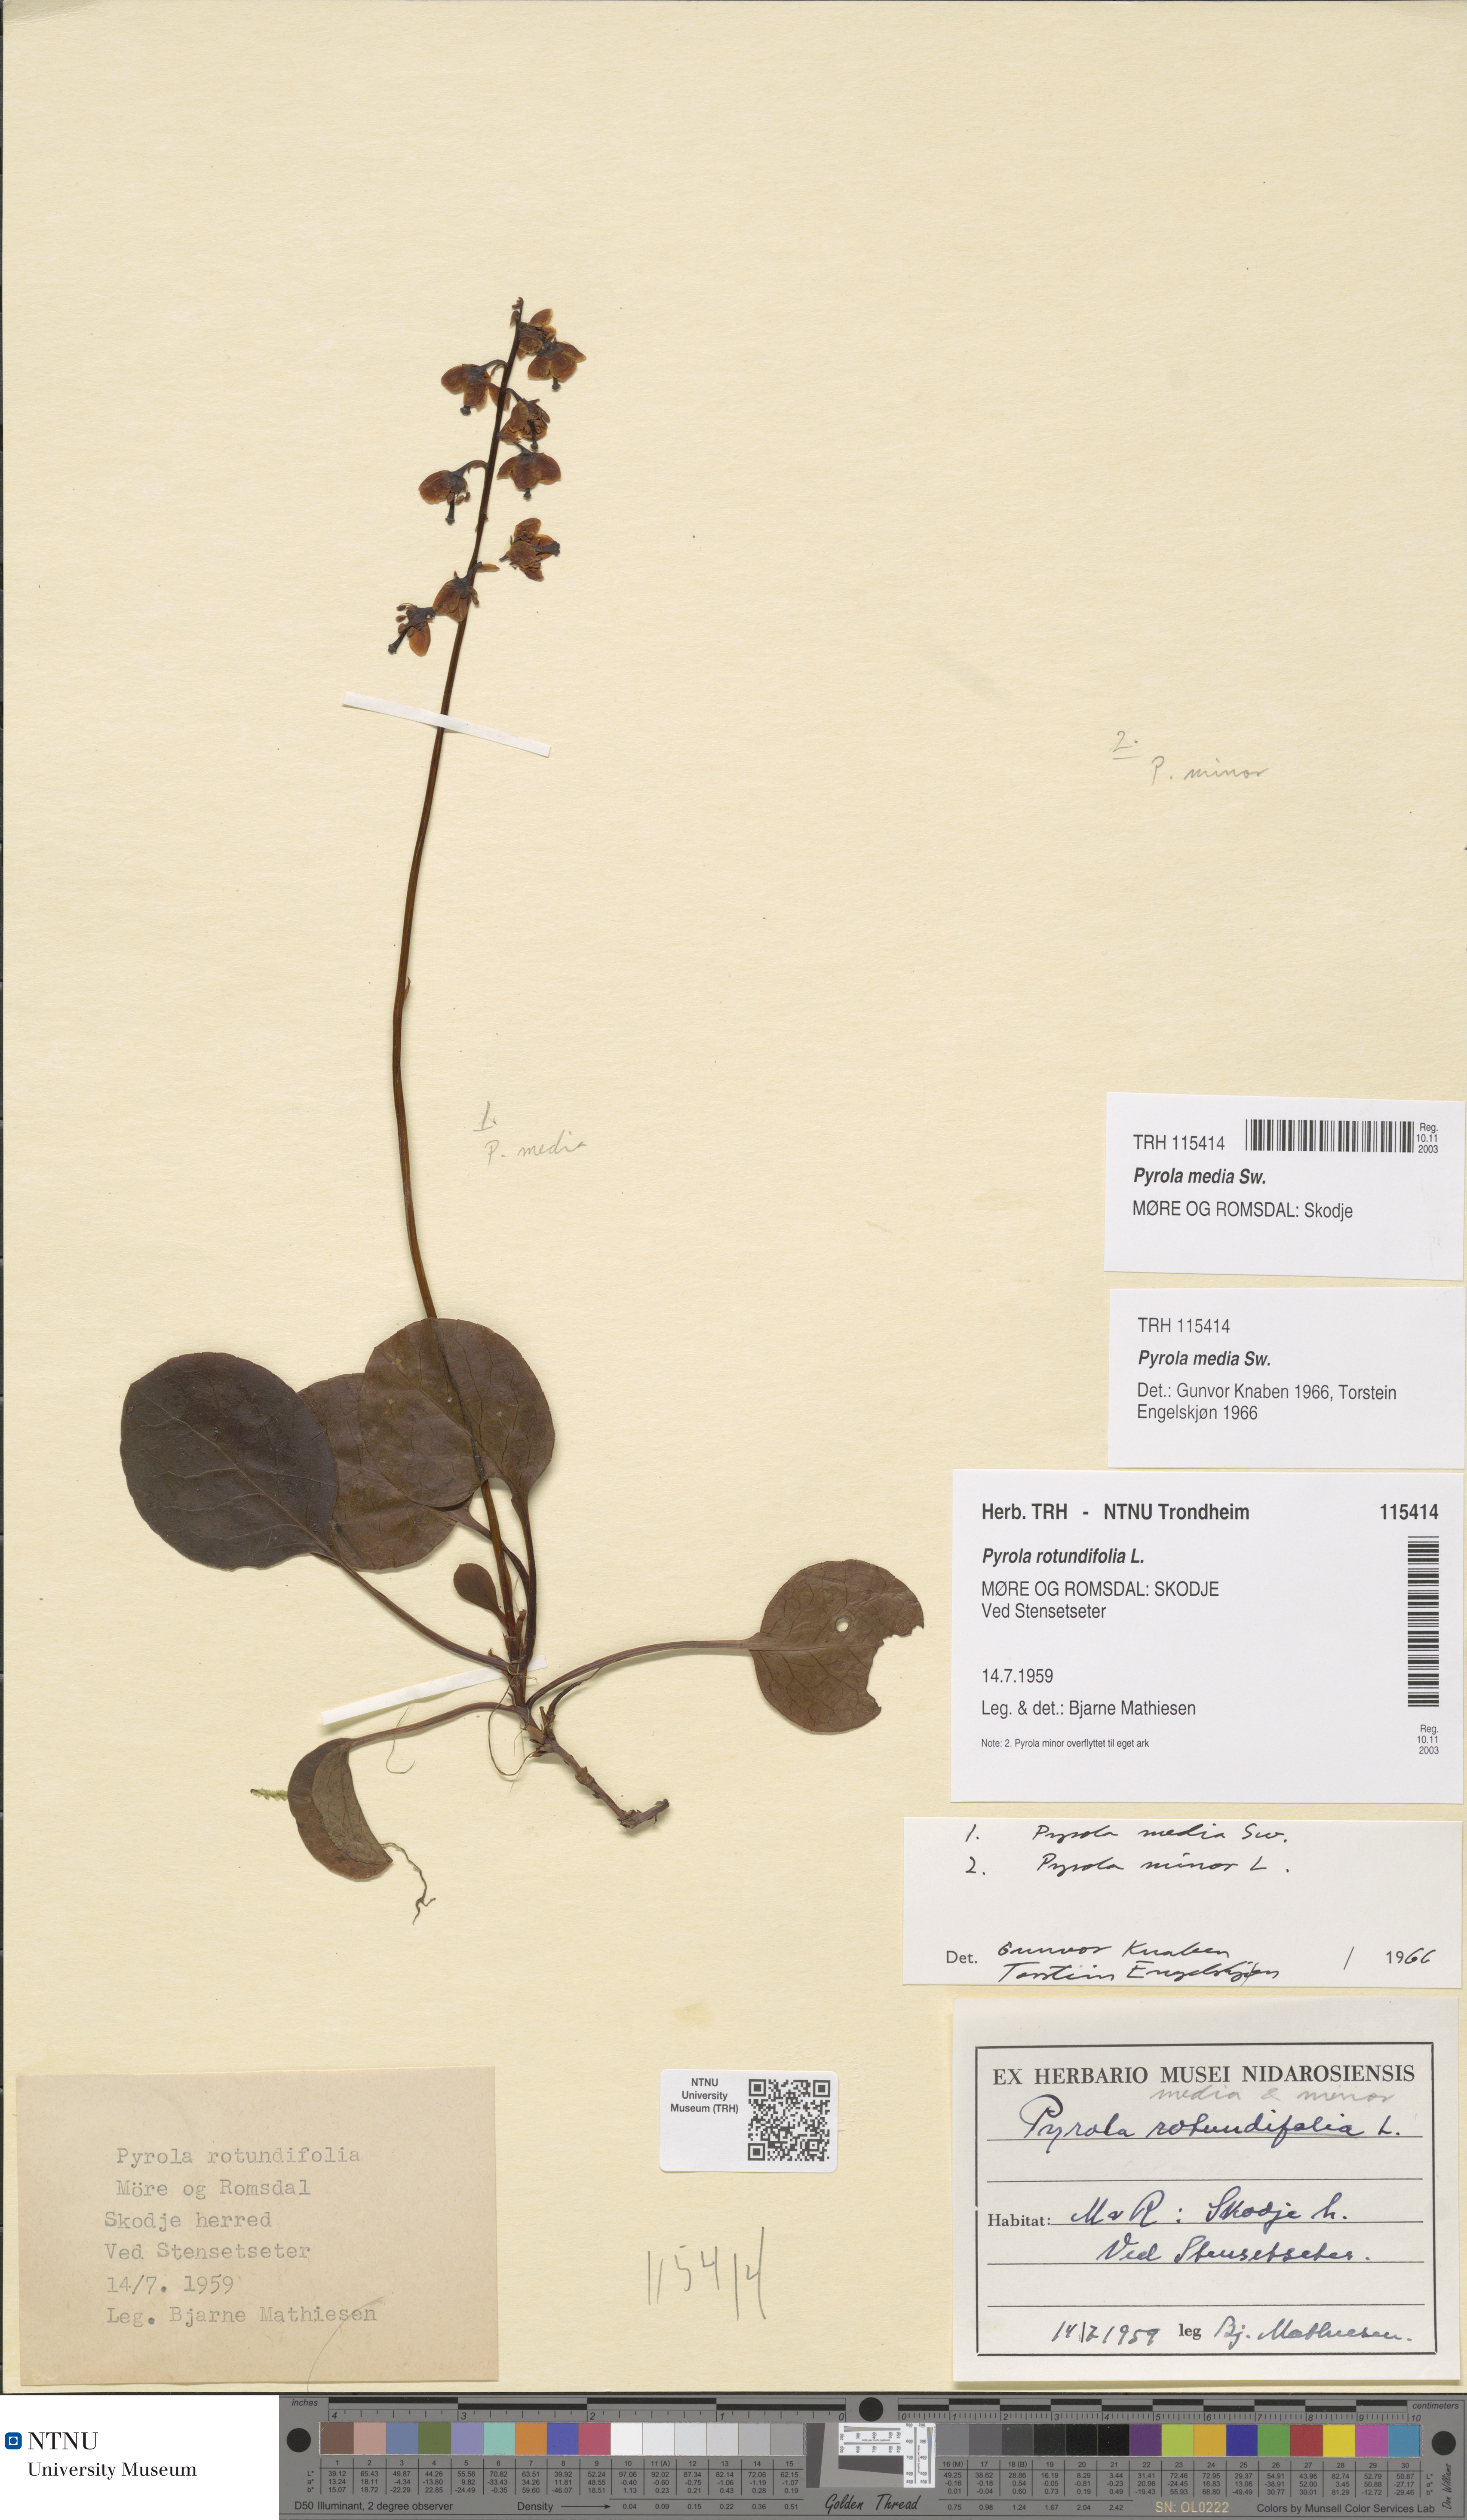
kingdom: Plantae
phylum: Tracheophyta
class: Magnoliopsida
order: Ericales
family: Ericaceae
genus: Pyrola
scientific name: Pyrola media
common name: Intermediate wintergreen
